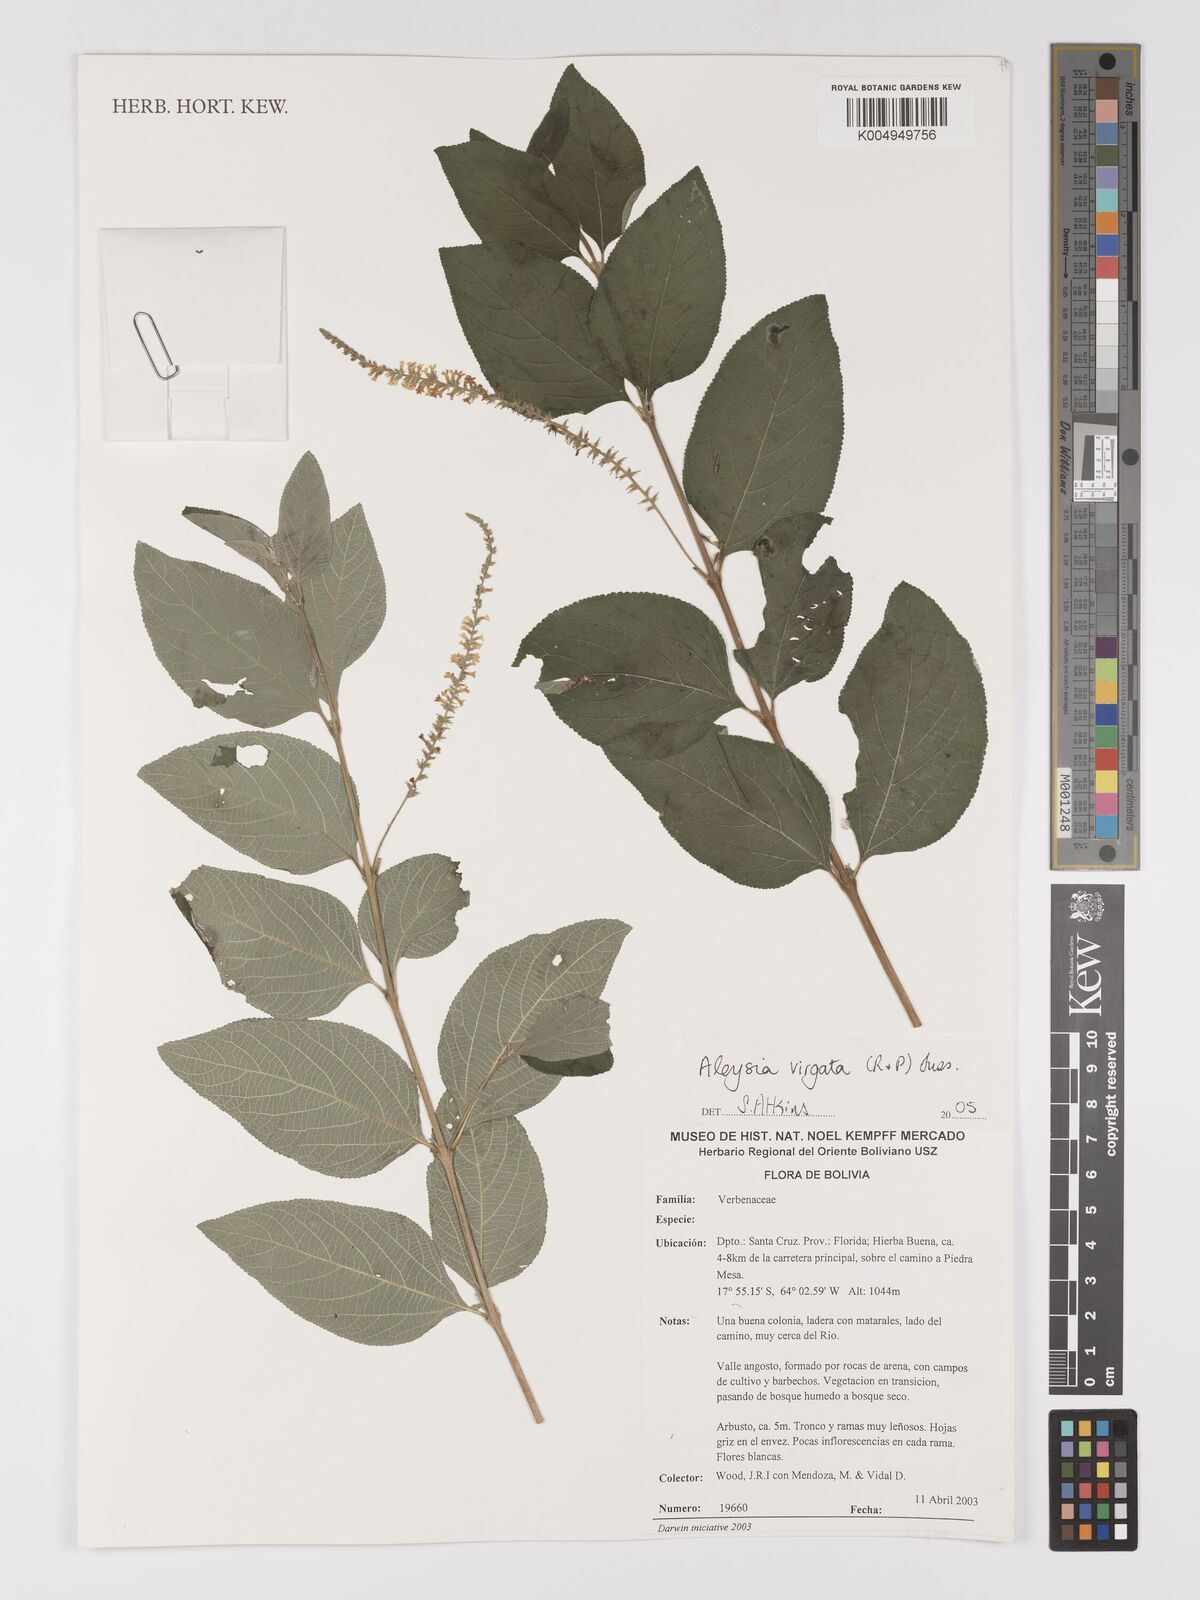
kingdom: Plantae
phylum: Tracheophyta
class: Magnoliopsida
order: Lamiales
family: Verbenaceae
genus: Aloysia
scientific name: Aloysia virgata
